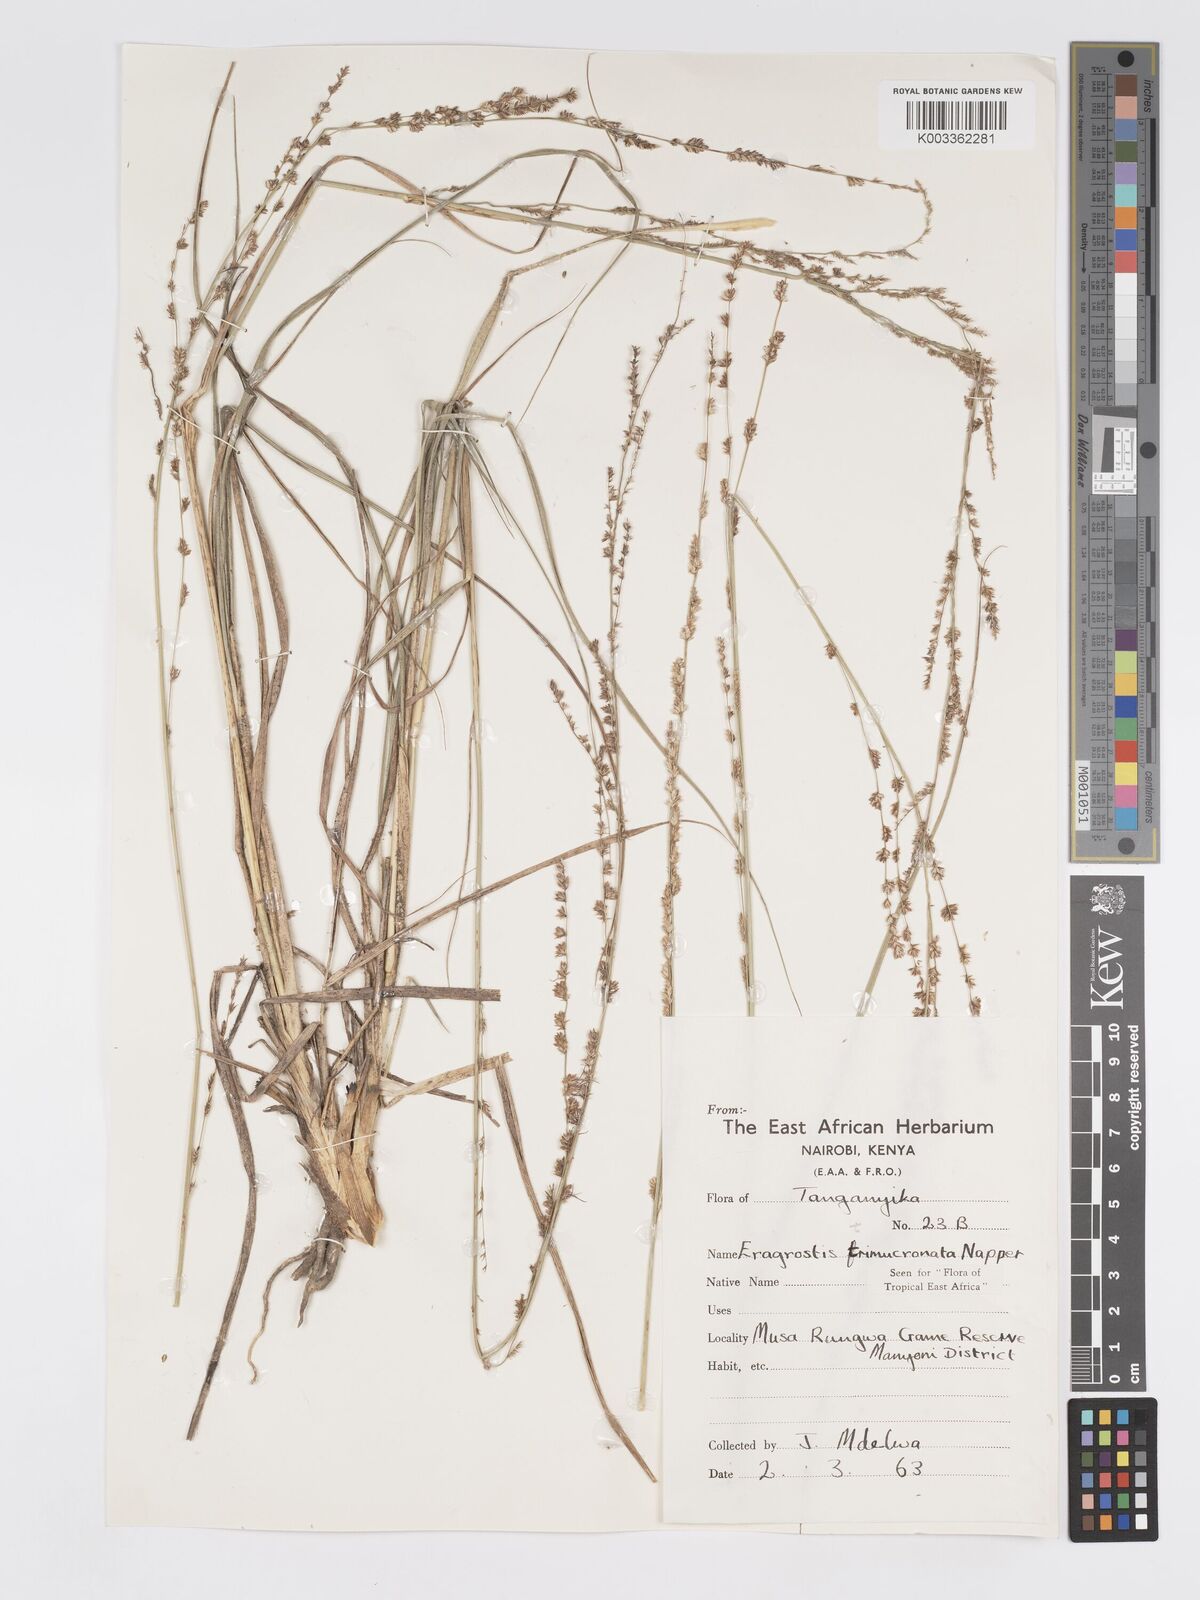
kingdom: Plantae
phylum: Tracheophyta
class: Liliopsida
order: Poales
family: Poaceae
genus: Eragrostis
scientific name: Eragrostis trimucronata
